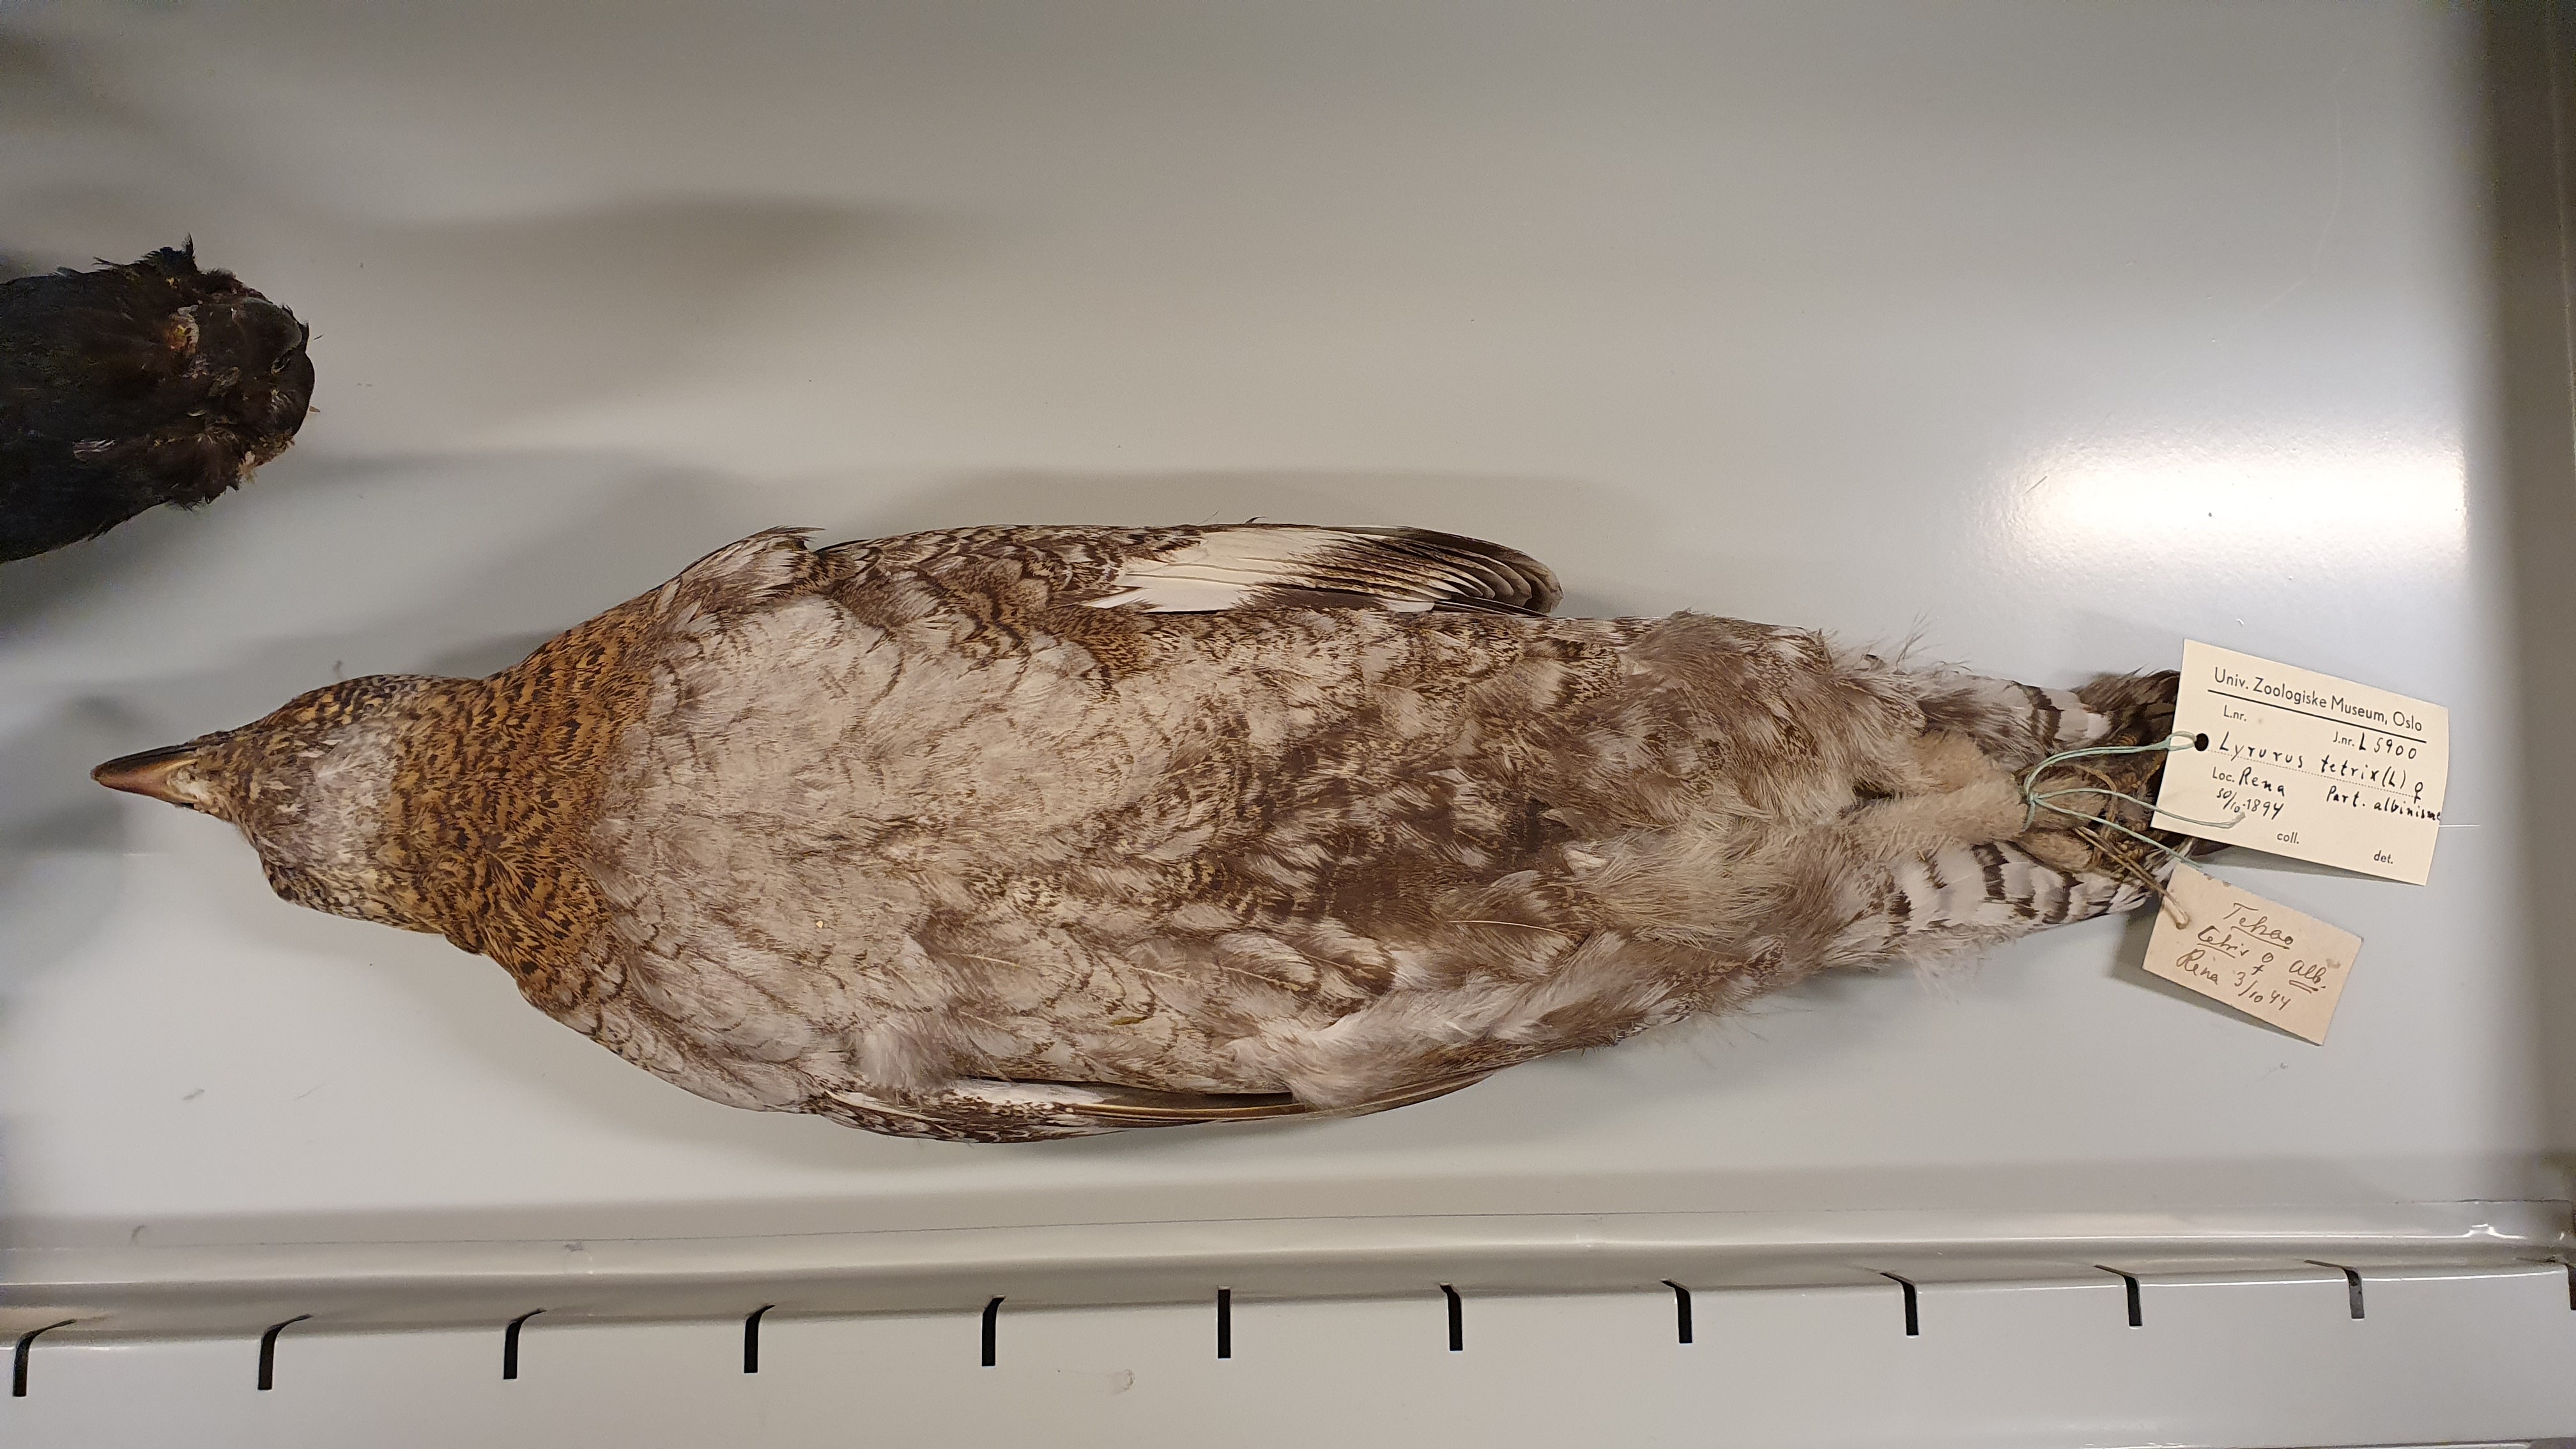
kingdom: Animalia
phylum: Chordata
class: Aves
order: Galliformes
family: Phasianidae
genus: Lyrurus
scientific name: Lyrurus tetrix
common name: Black grouse
